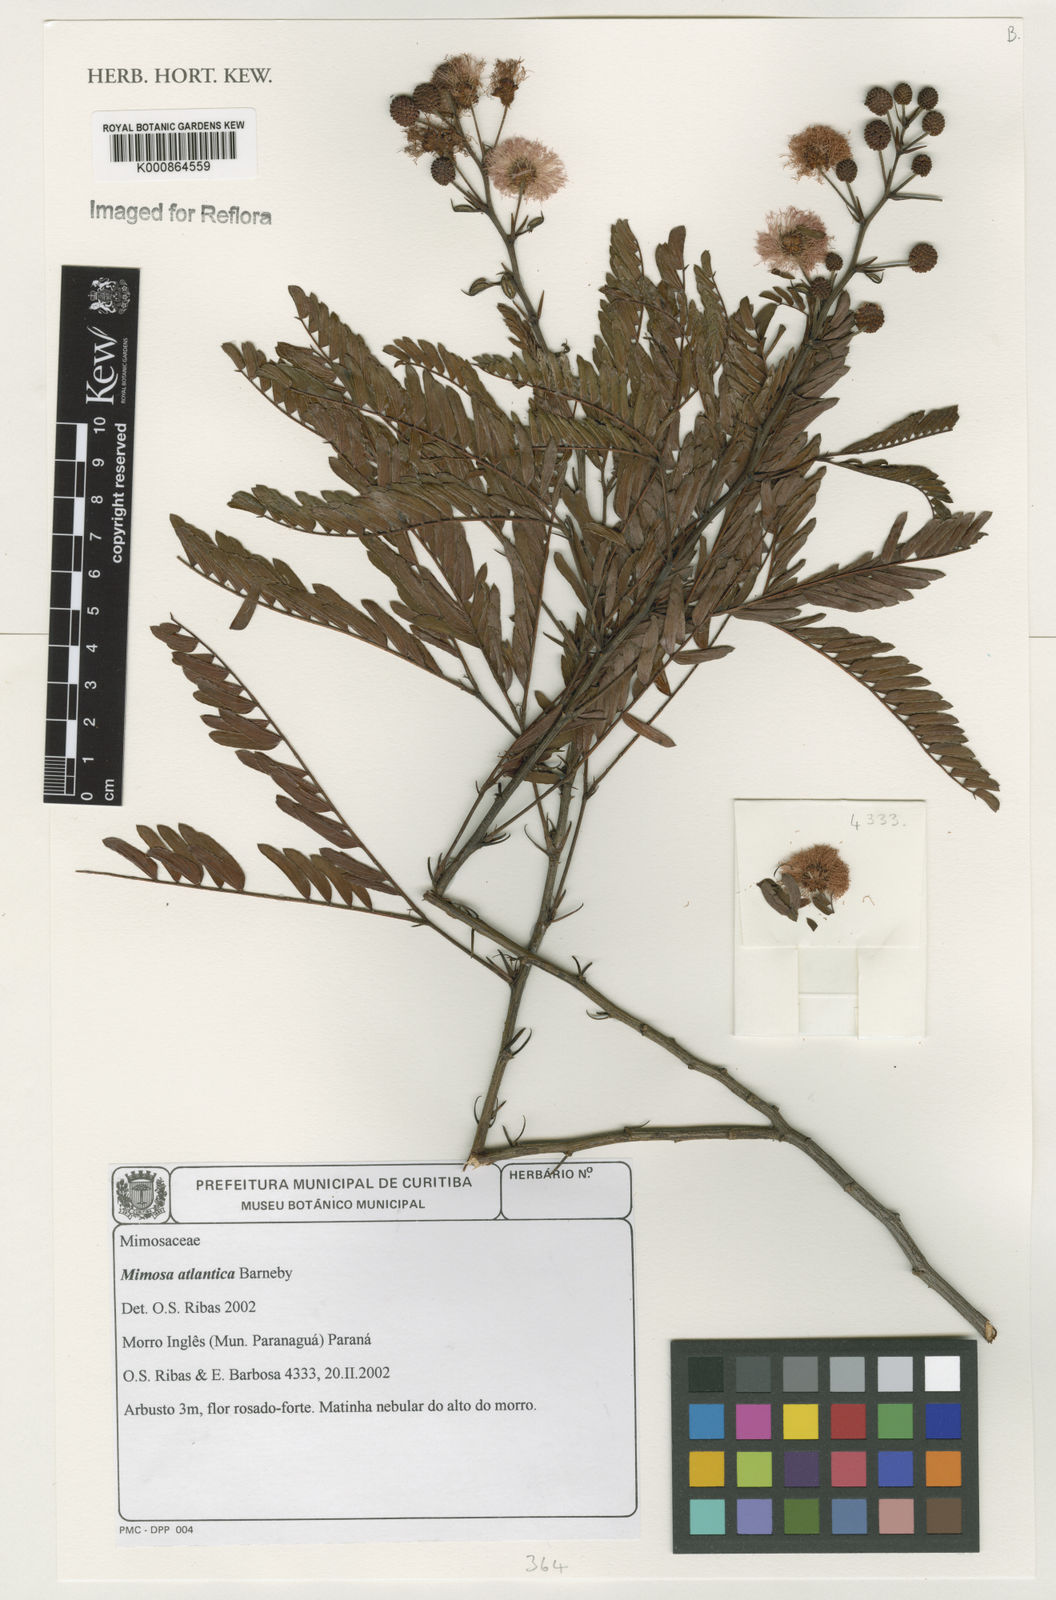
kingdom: Plantae
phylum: Tracheophyta
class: Magnoliopsida
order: Fabales
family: Fabaceae
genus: Mimosa
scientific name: Mimosa atlantica
